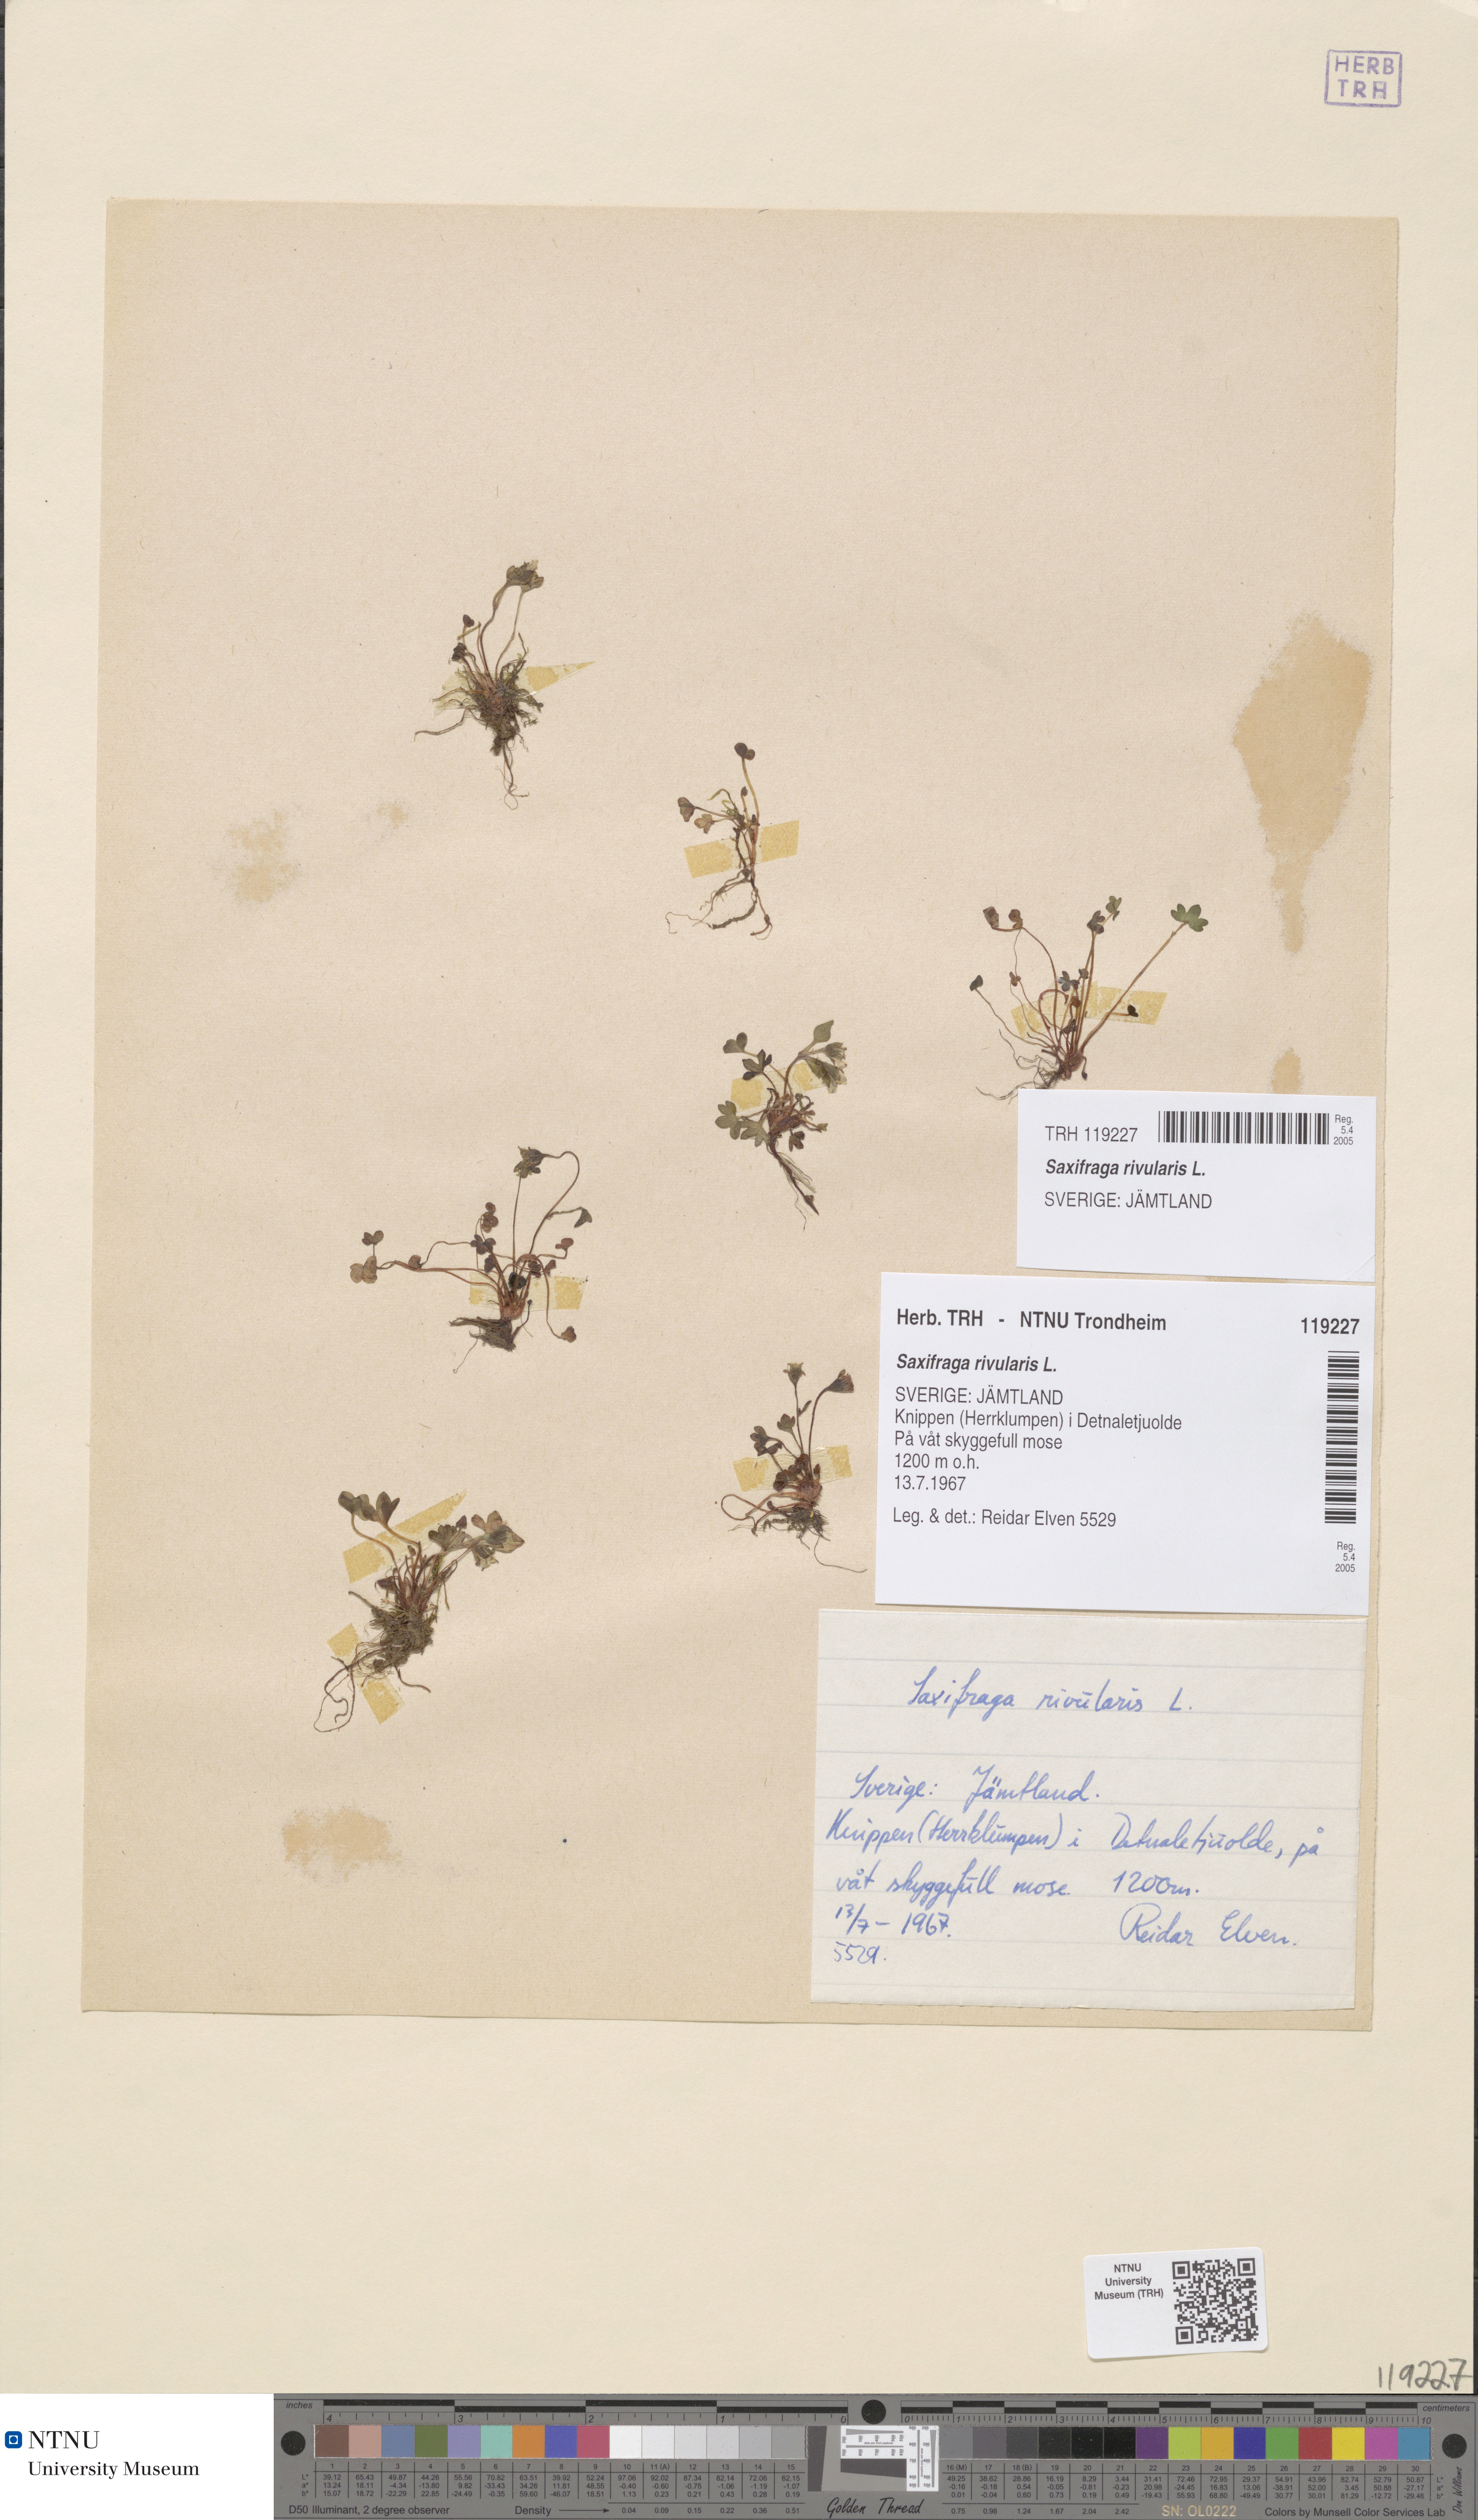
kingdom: Plantae
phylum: Tracheophyta
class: Magnoliopsida
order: Saxifragales
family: Saxifragaceae
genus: Saxifraga
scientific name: Saxifraga rivularis
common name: Highland saxifrage
